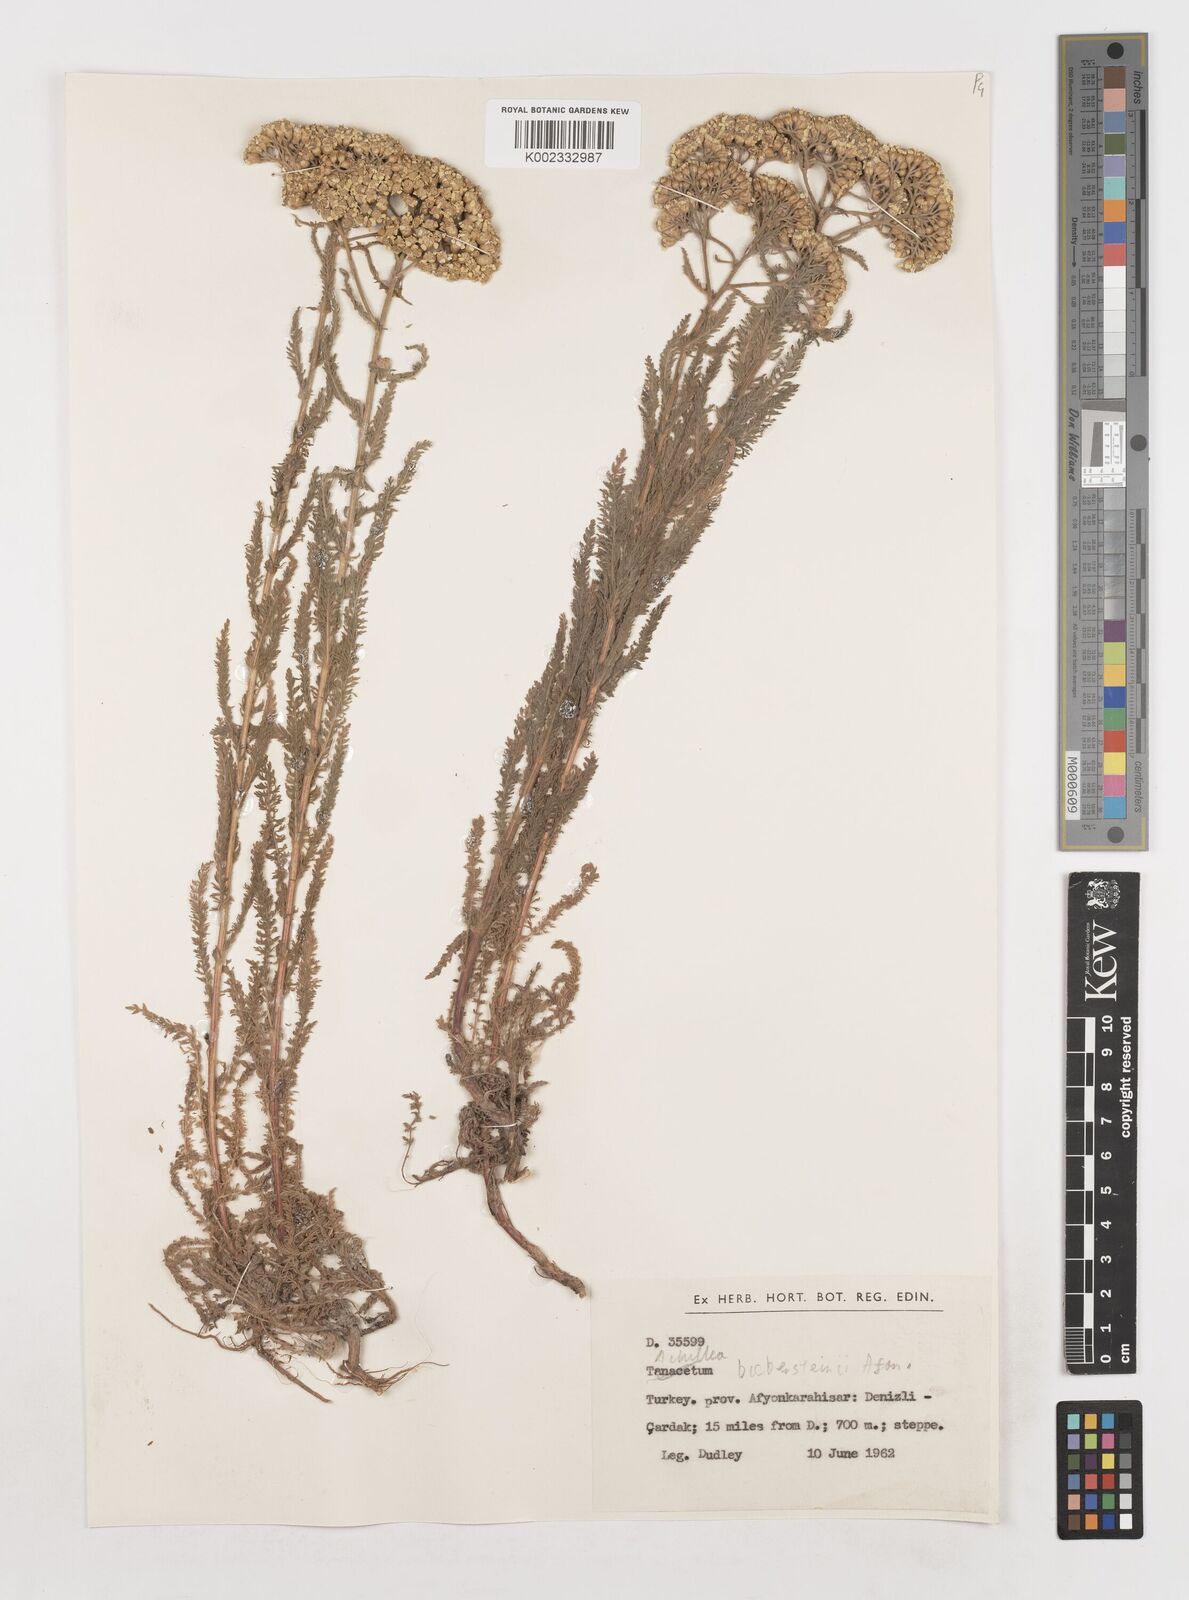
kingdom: Plantae
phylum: Tracheophyta
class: Magnoliopsida
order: Asterales
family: Asteraceae
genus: Achillea
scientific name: Achillea arabica
